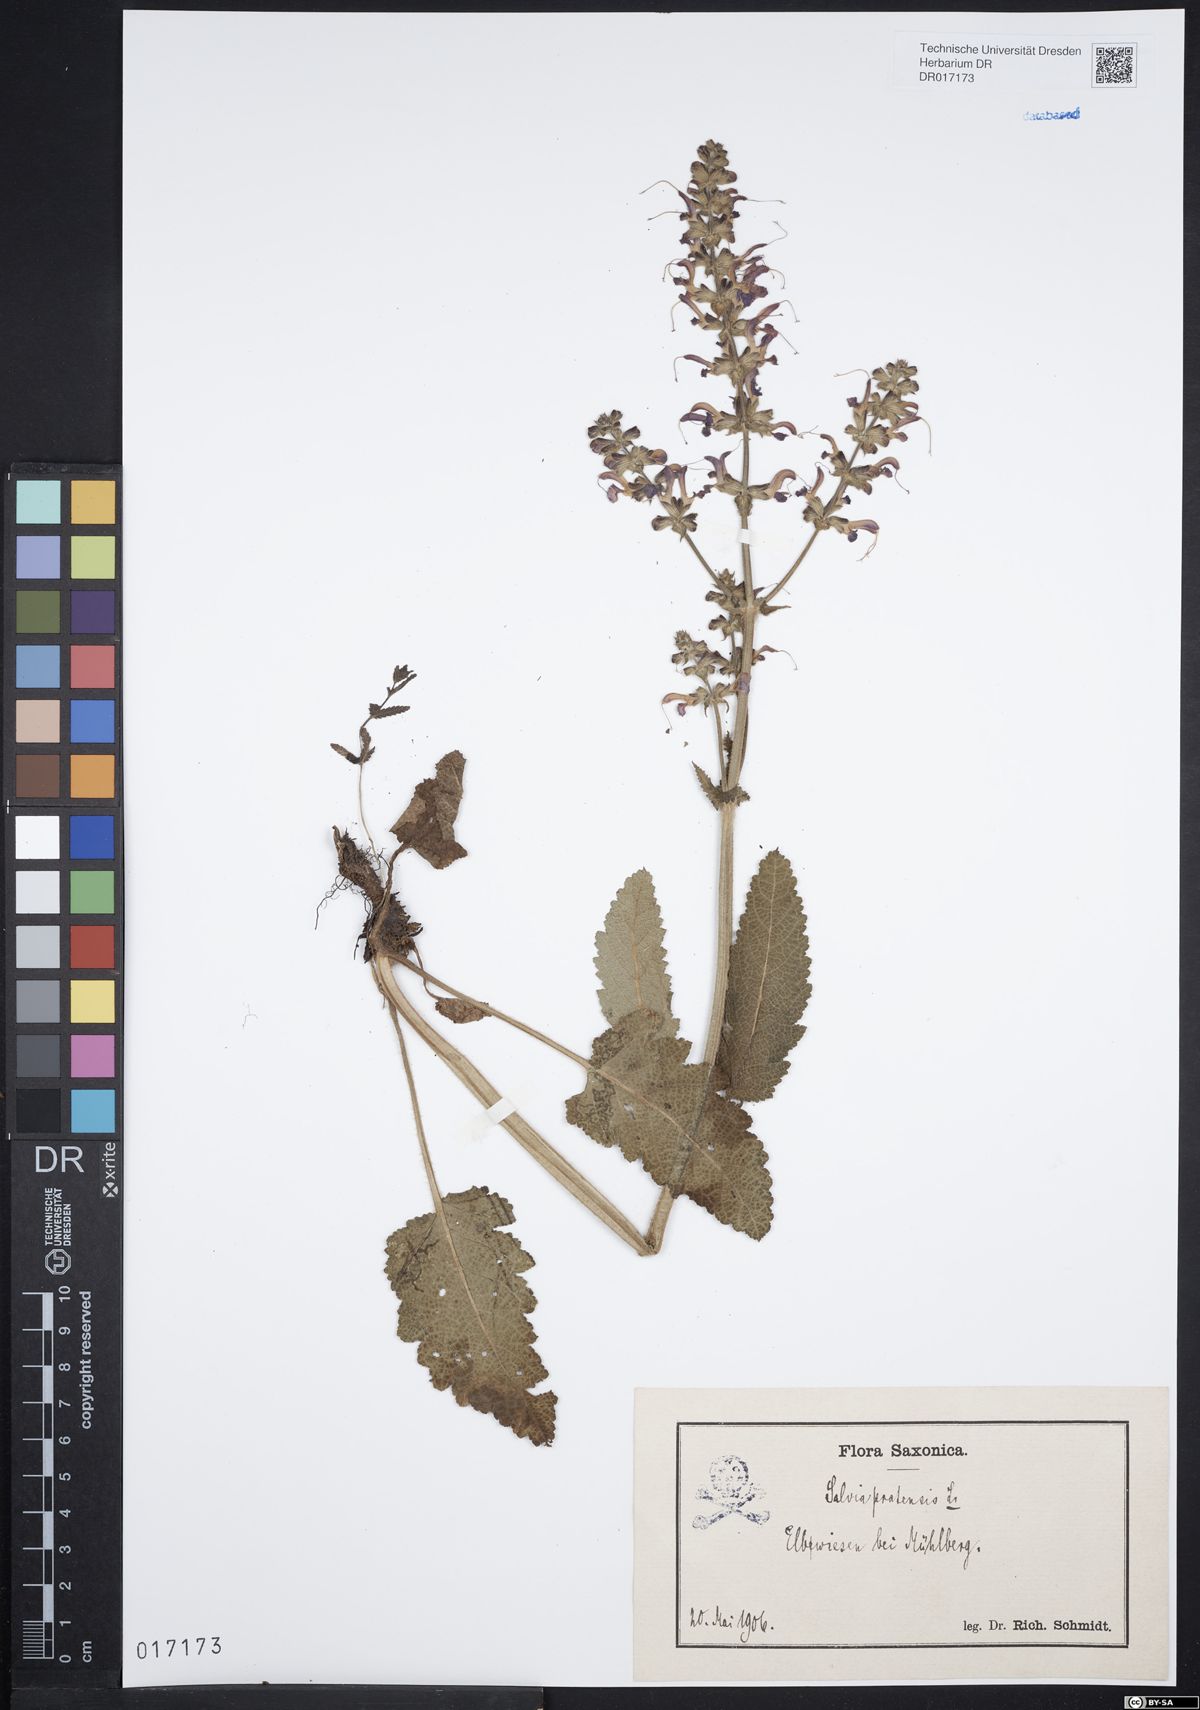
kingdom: Plantae
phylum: Tracheophyta
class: Magnoliopsida
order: Lamiales
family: Lamiaceae
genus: Salvia
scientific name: Salvia pratensis
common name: Meadow sage
